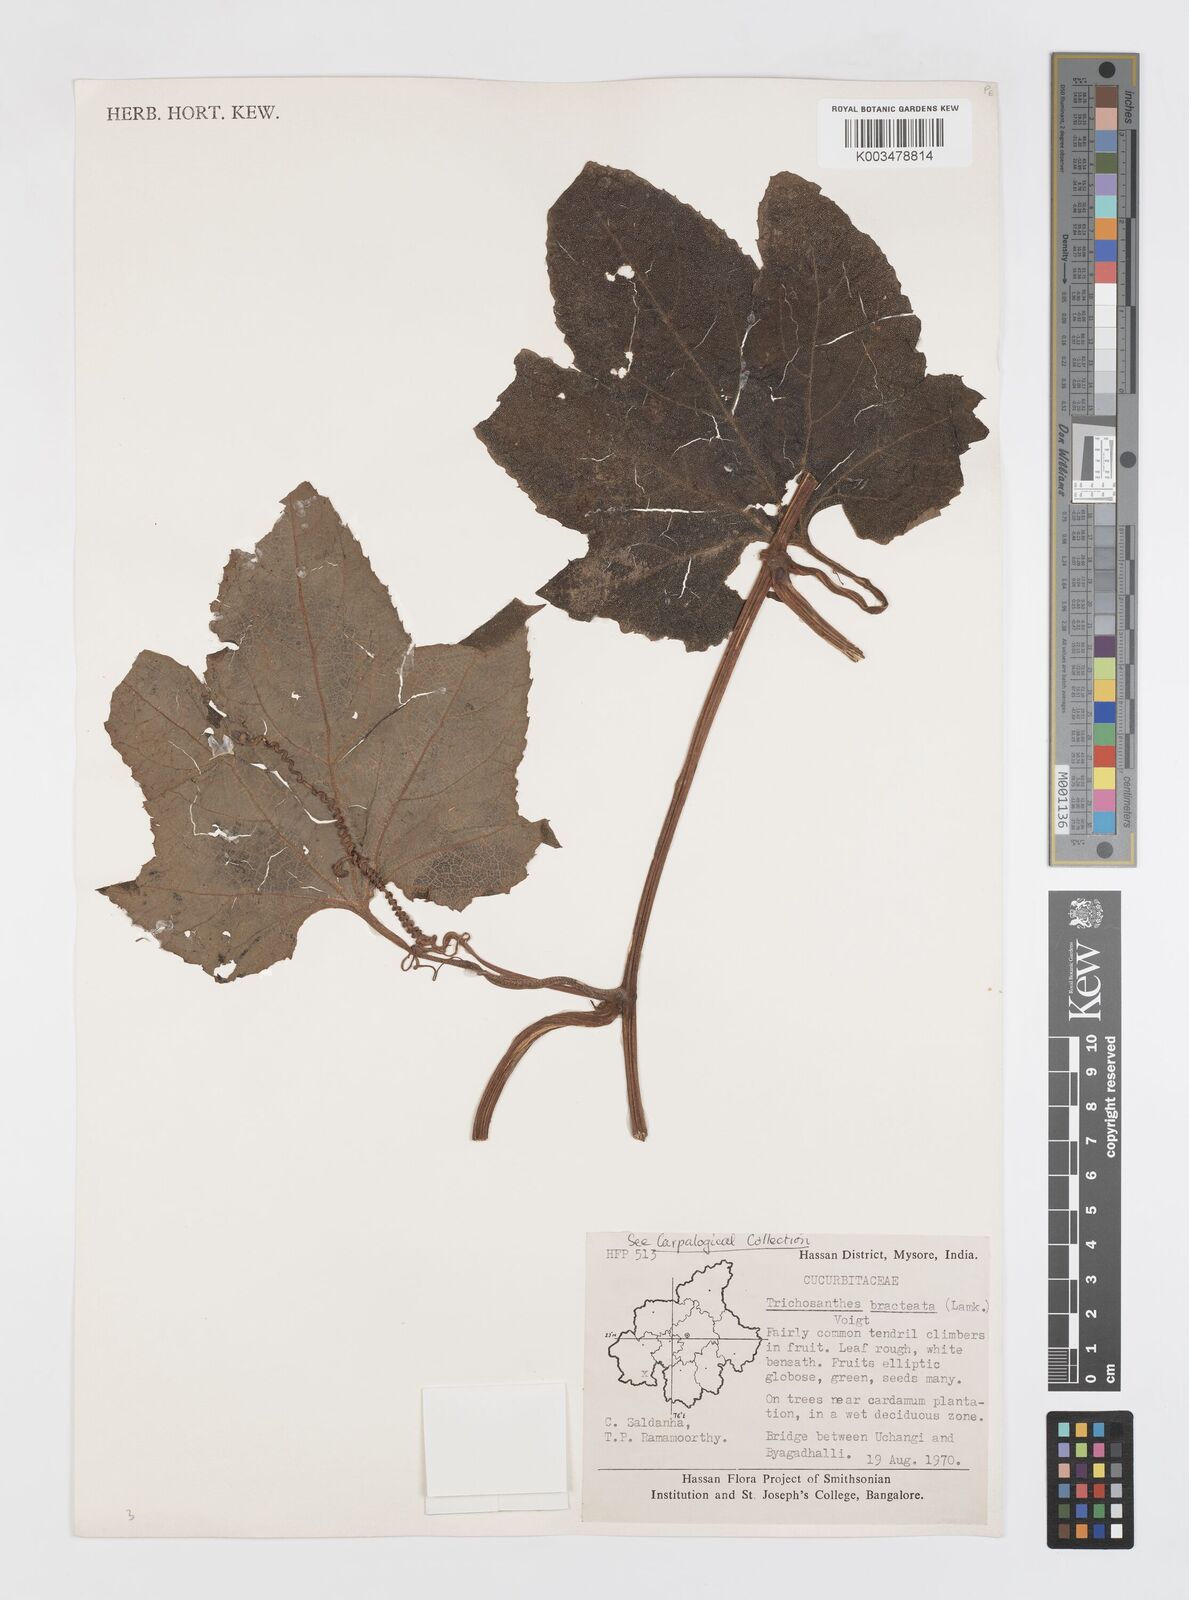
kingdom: Plantae
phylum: Tracheophyta
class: Magnoliopsida
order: Cucurbitales
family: Cucurbitaceae
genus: Trichosanthes
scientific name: Trichosanthes anaimalaiensis
